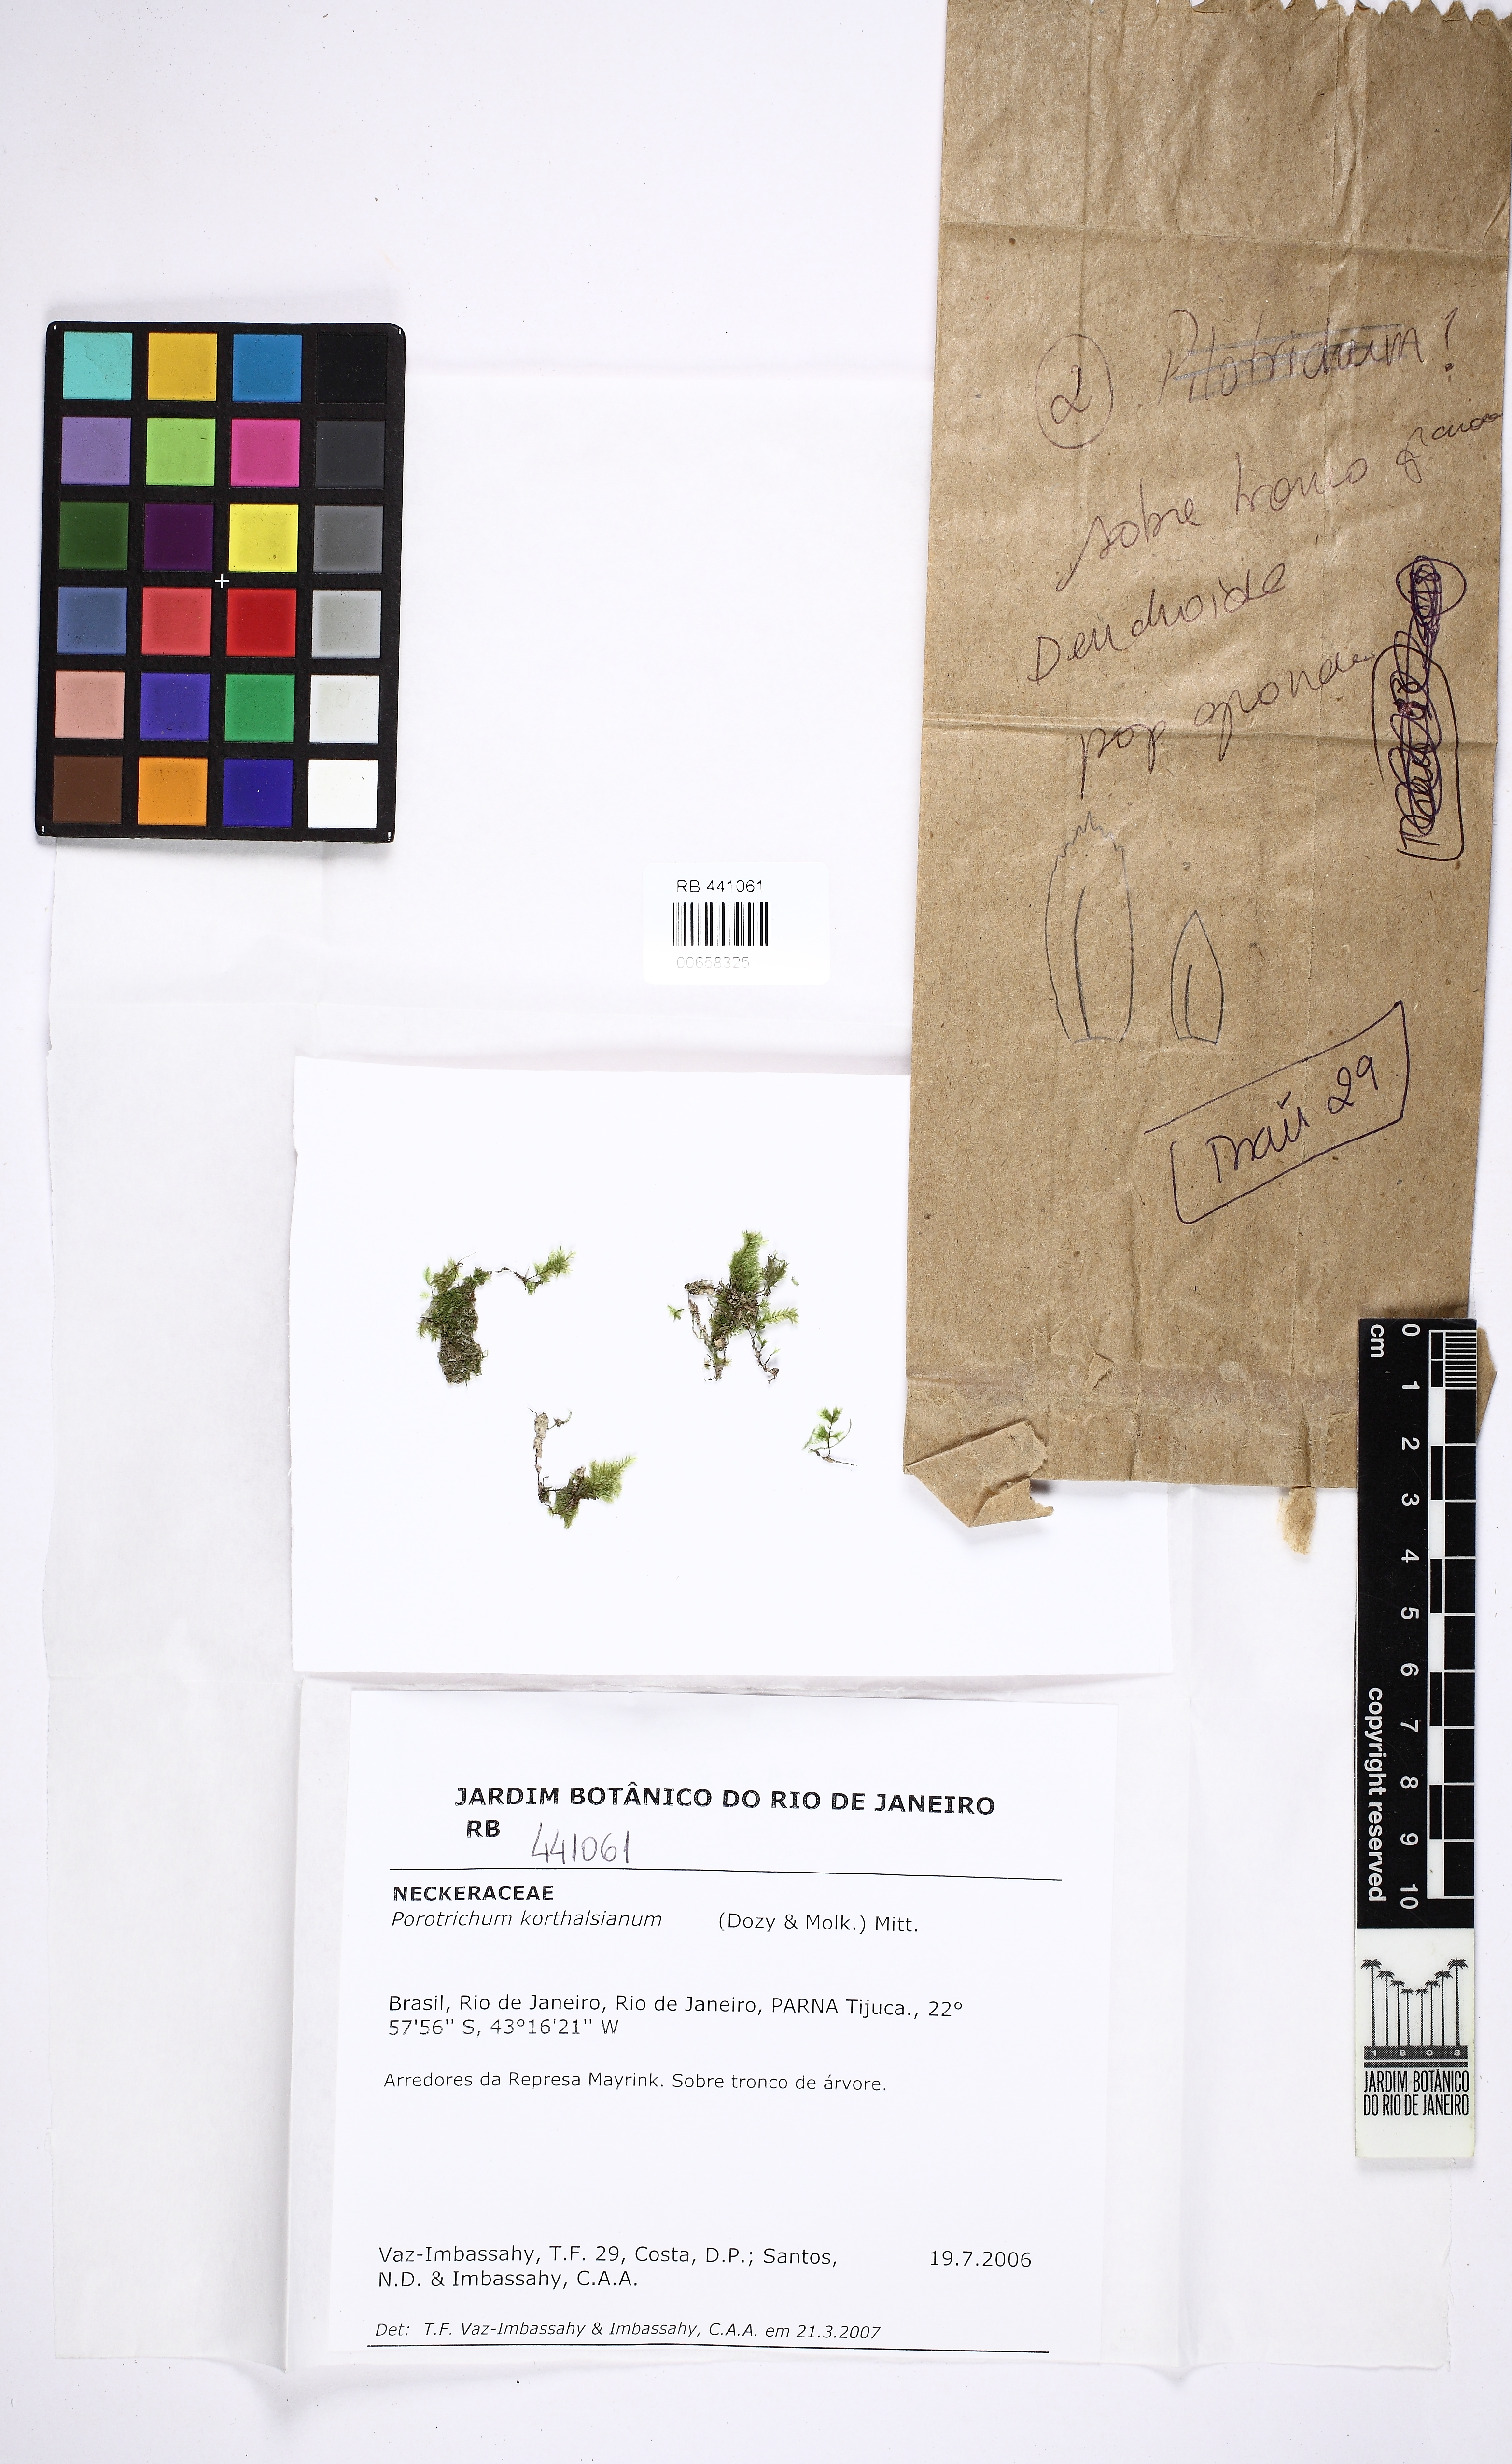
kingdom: Plantae
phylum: Bryophyta
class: Bryopsida
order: Hypnales
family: Neckeraceae
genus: Porotrichum
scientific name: Porotrichum korthalsianum
